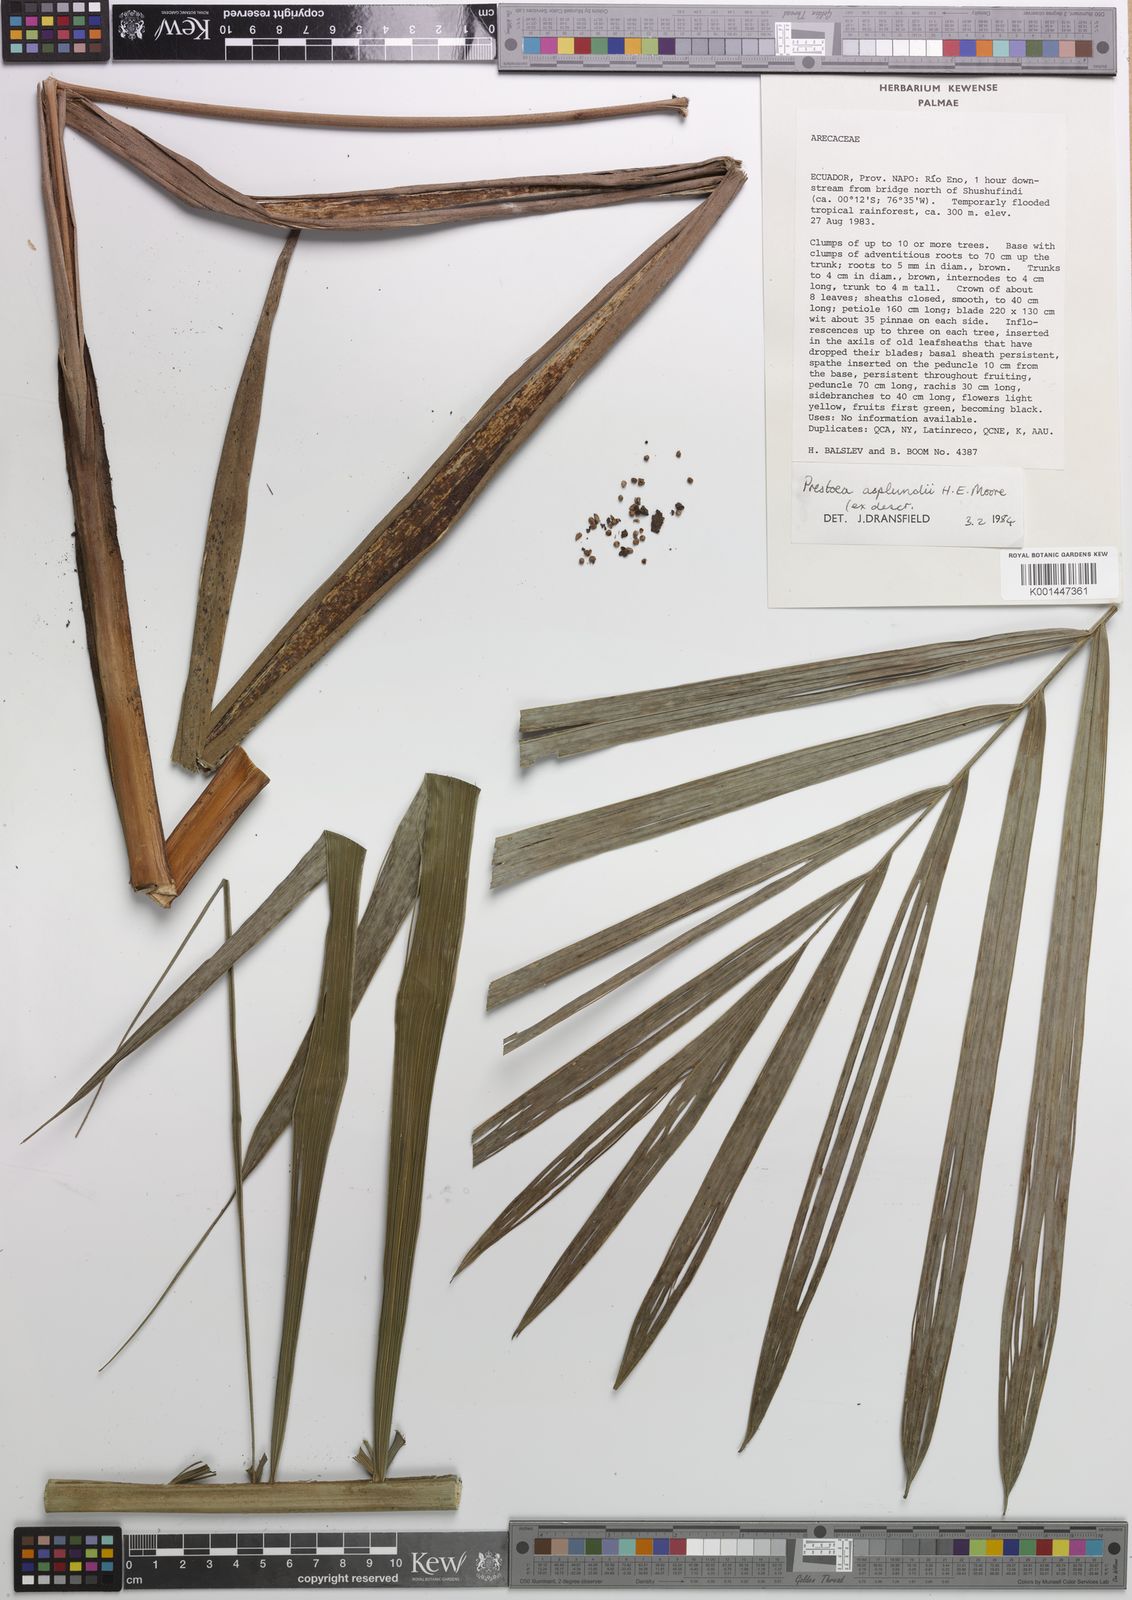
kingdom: Plantae
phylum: Tracheophyta
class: Liliopsida
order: Arecales
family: Arecaceae
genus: Prestoea
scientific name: Prestoea schultzeana
